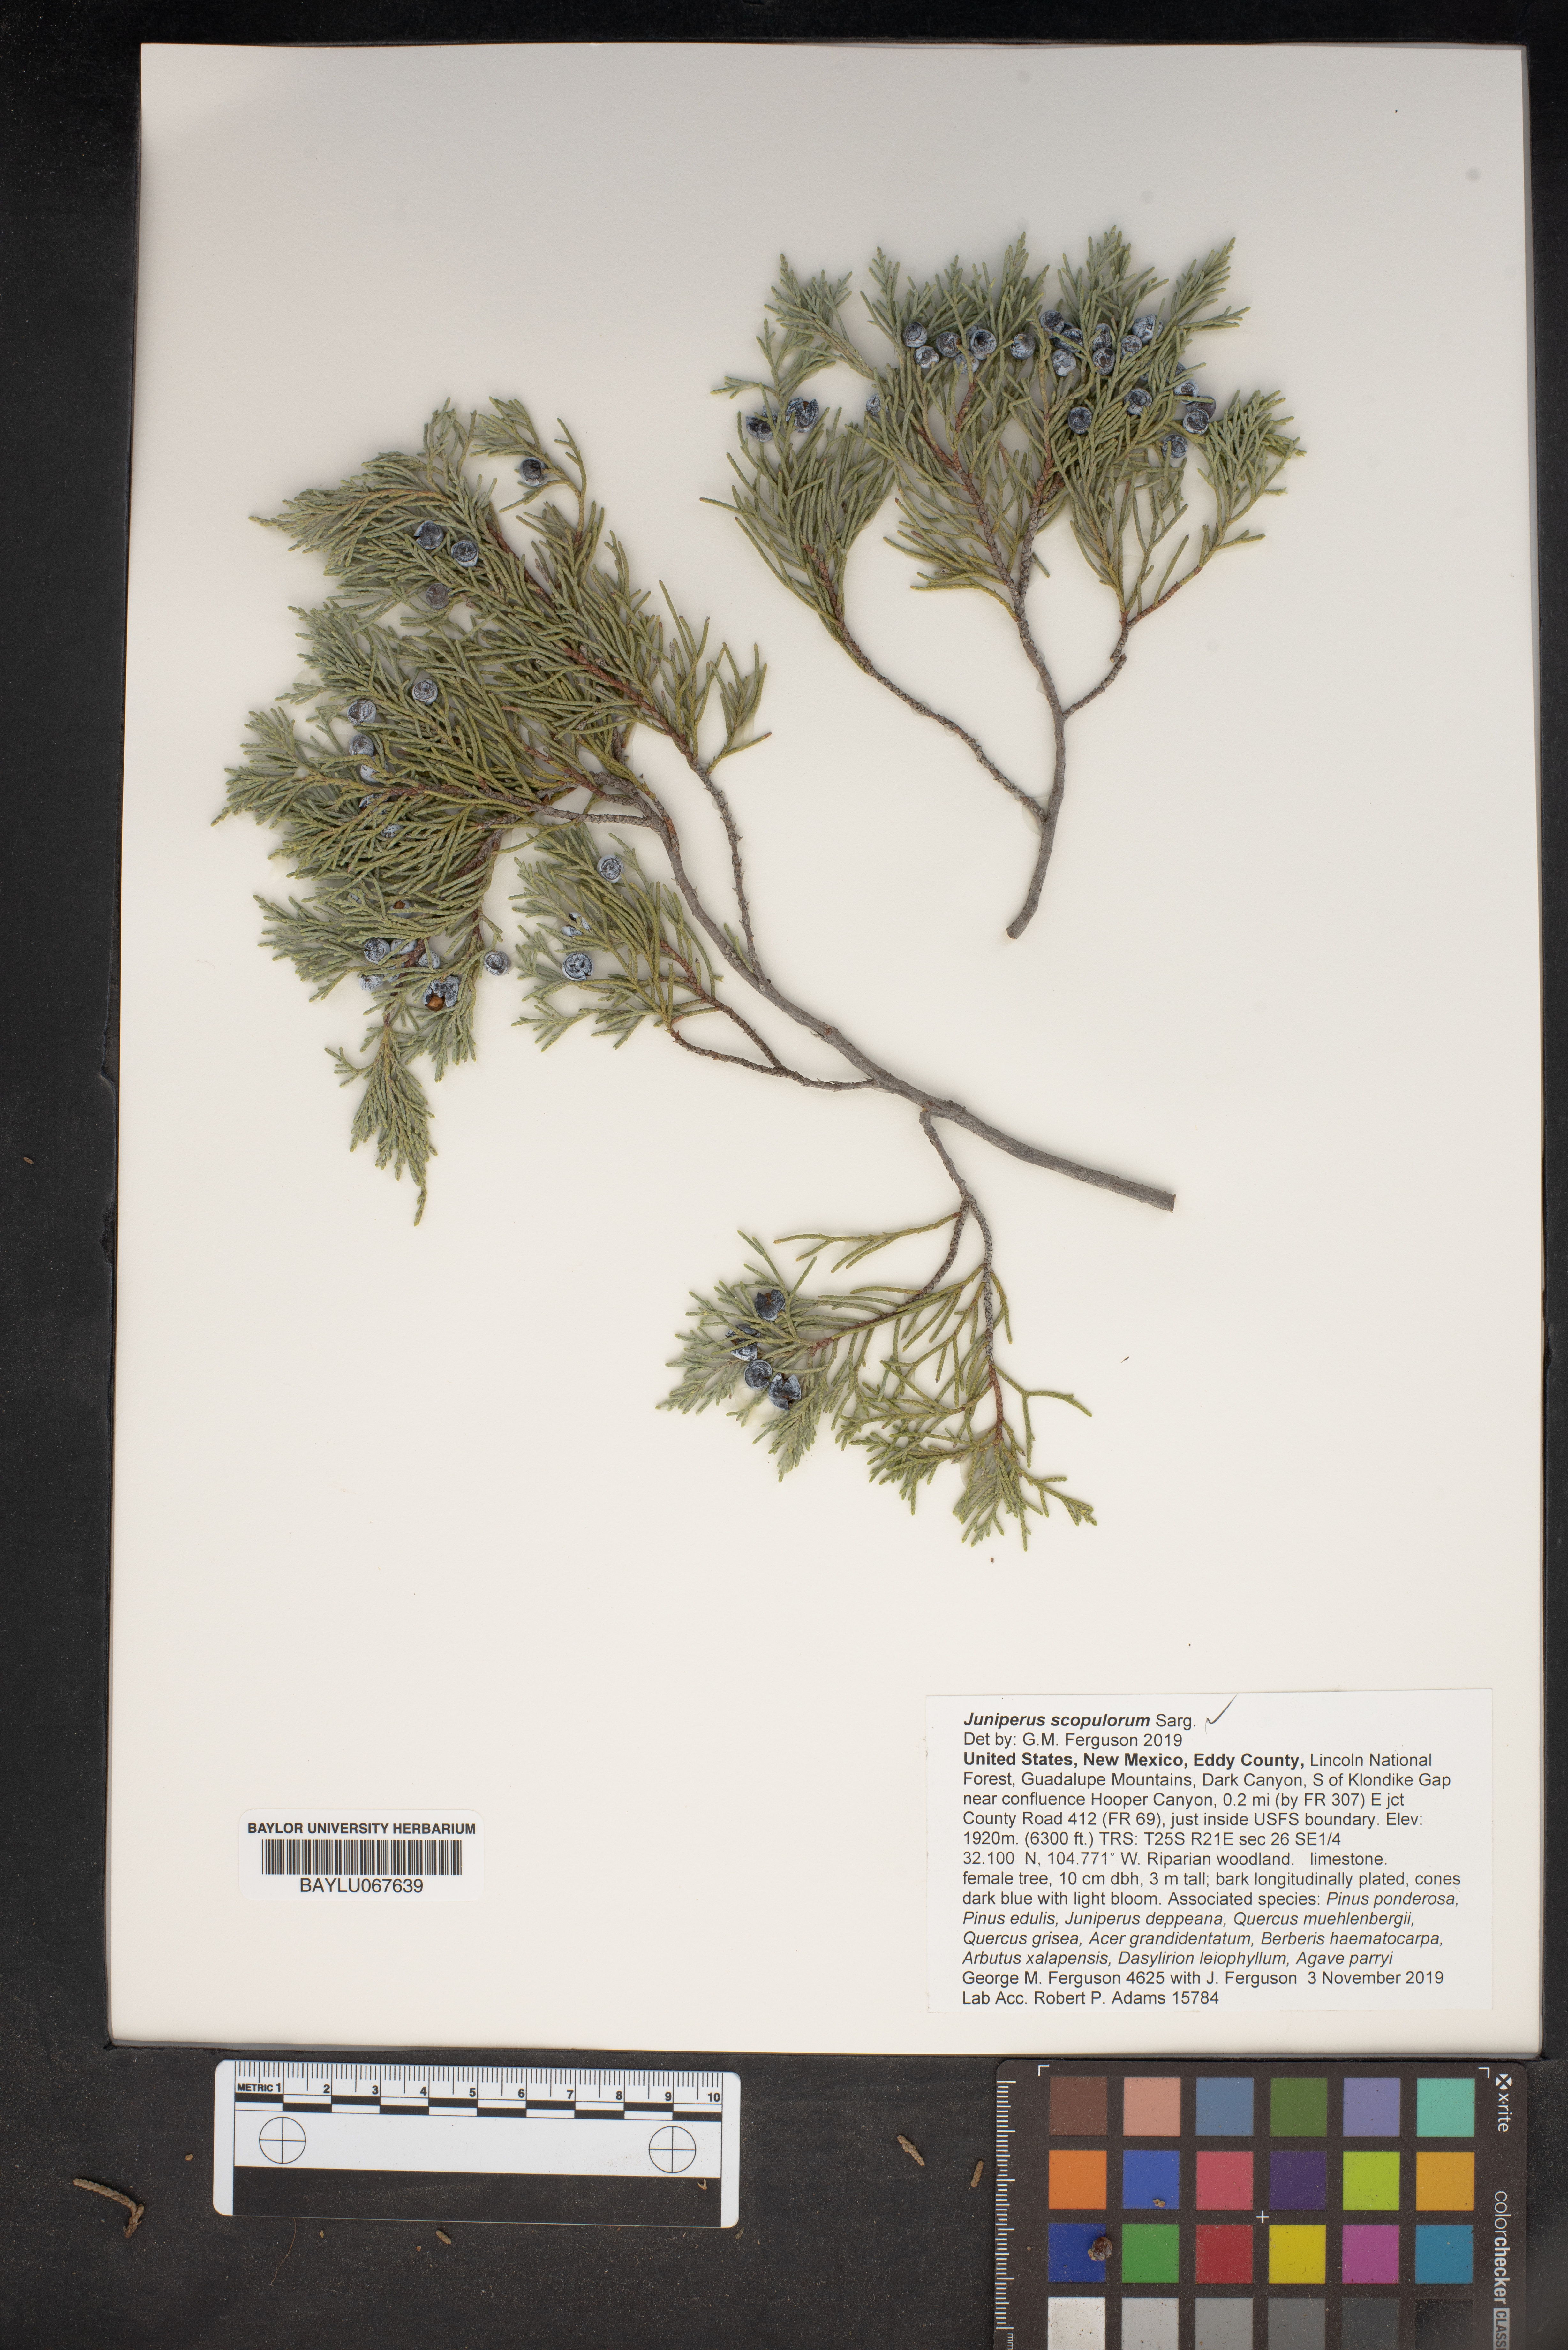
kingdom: Plantae
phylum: Tracheophyta
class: Pinopsida
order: Pinales
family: Cupressaceae
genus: Juniperus
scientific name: Juniperus scopulorum
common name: Rocky mountain juniper
